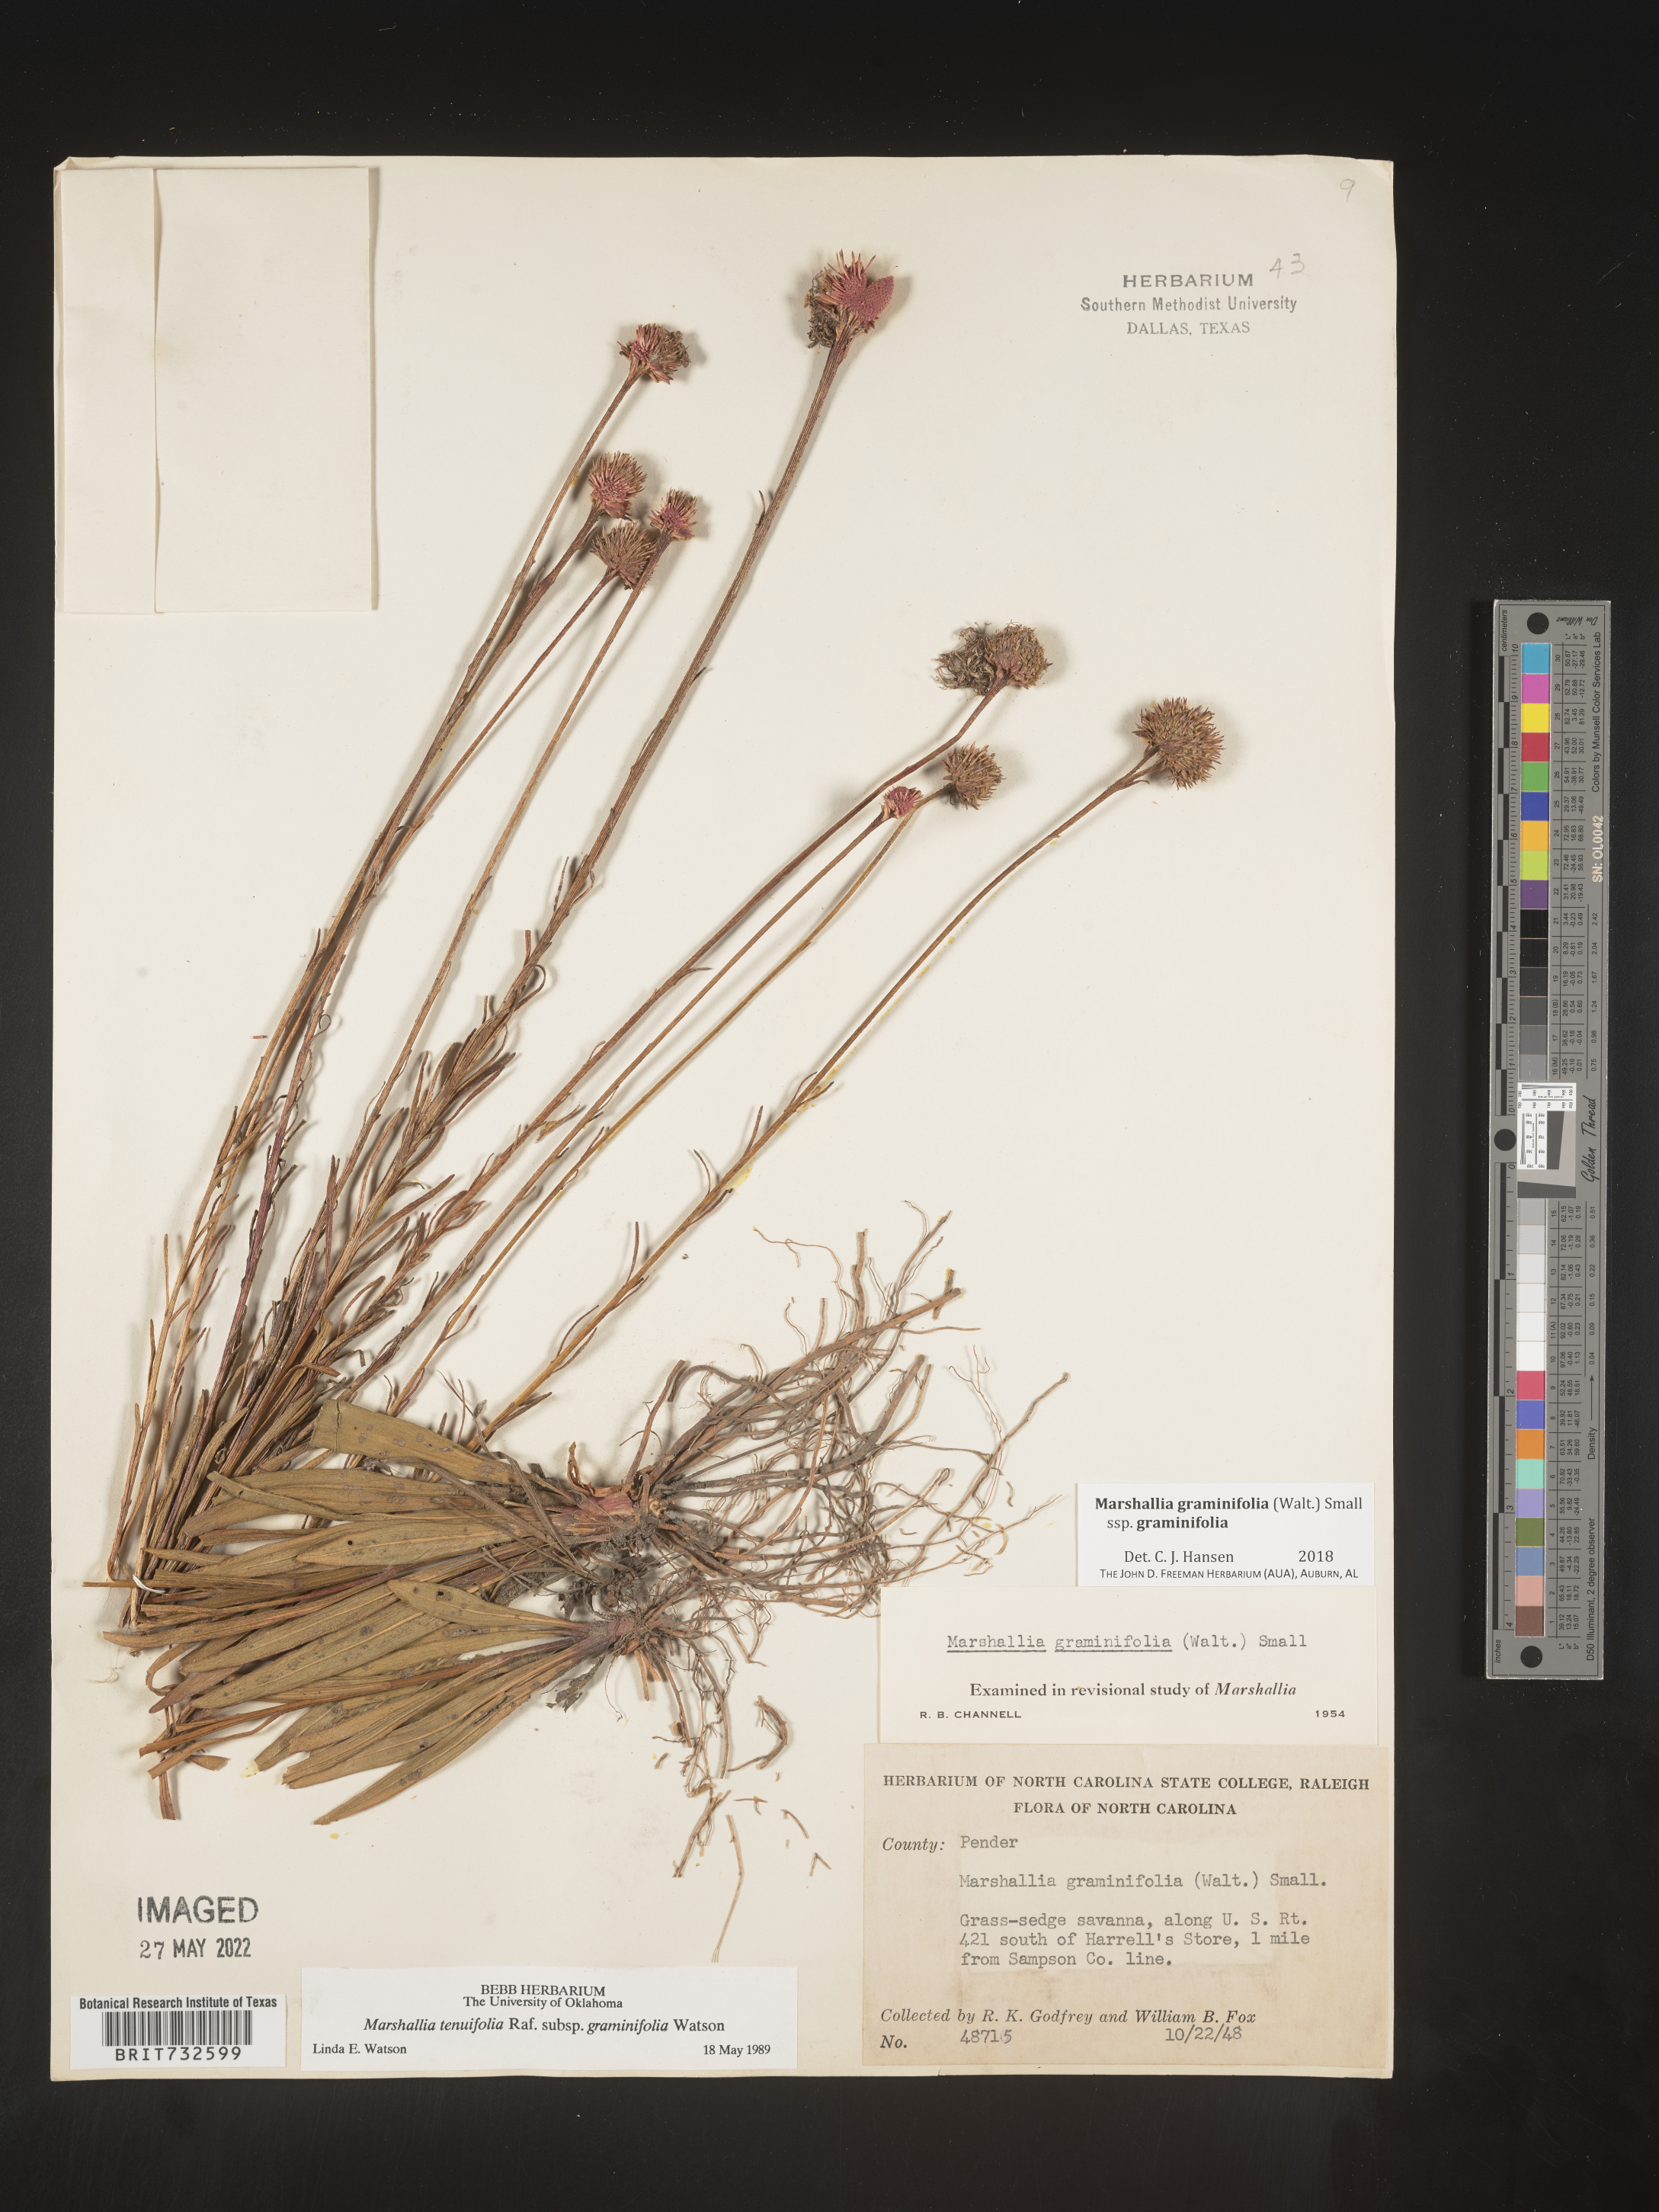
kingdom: Plantae
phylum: Tracheophyta
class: Magnoliopsida
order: Asterales
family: Asteraceae
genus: Marshallia
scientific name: Marshallia graminifolia
